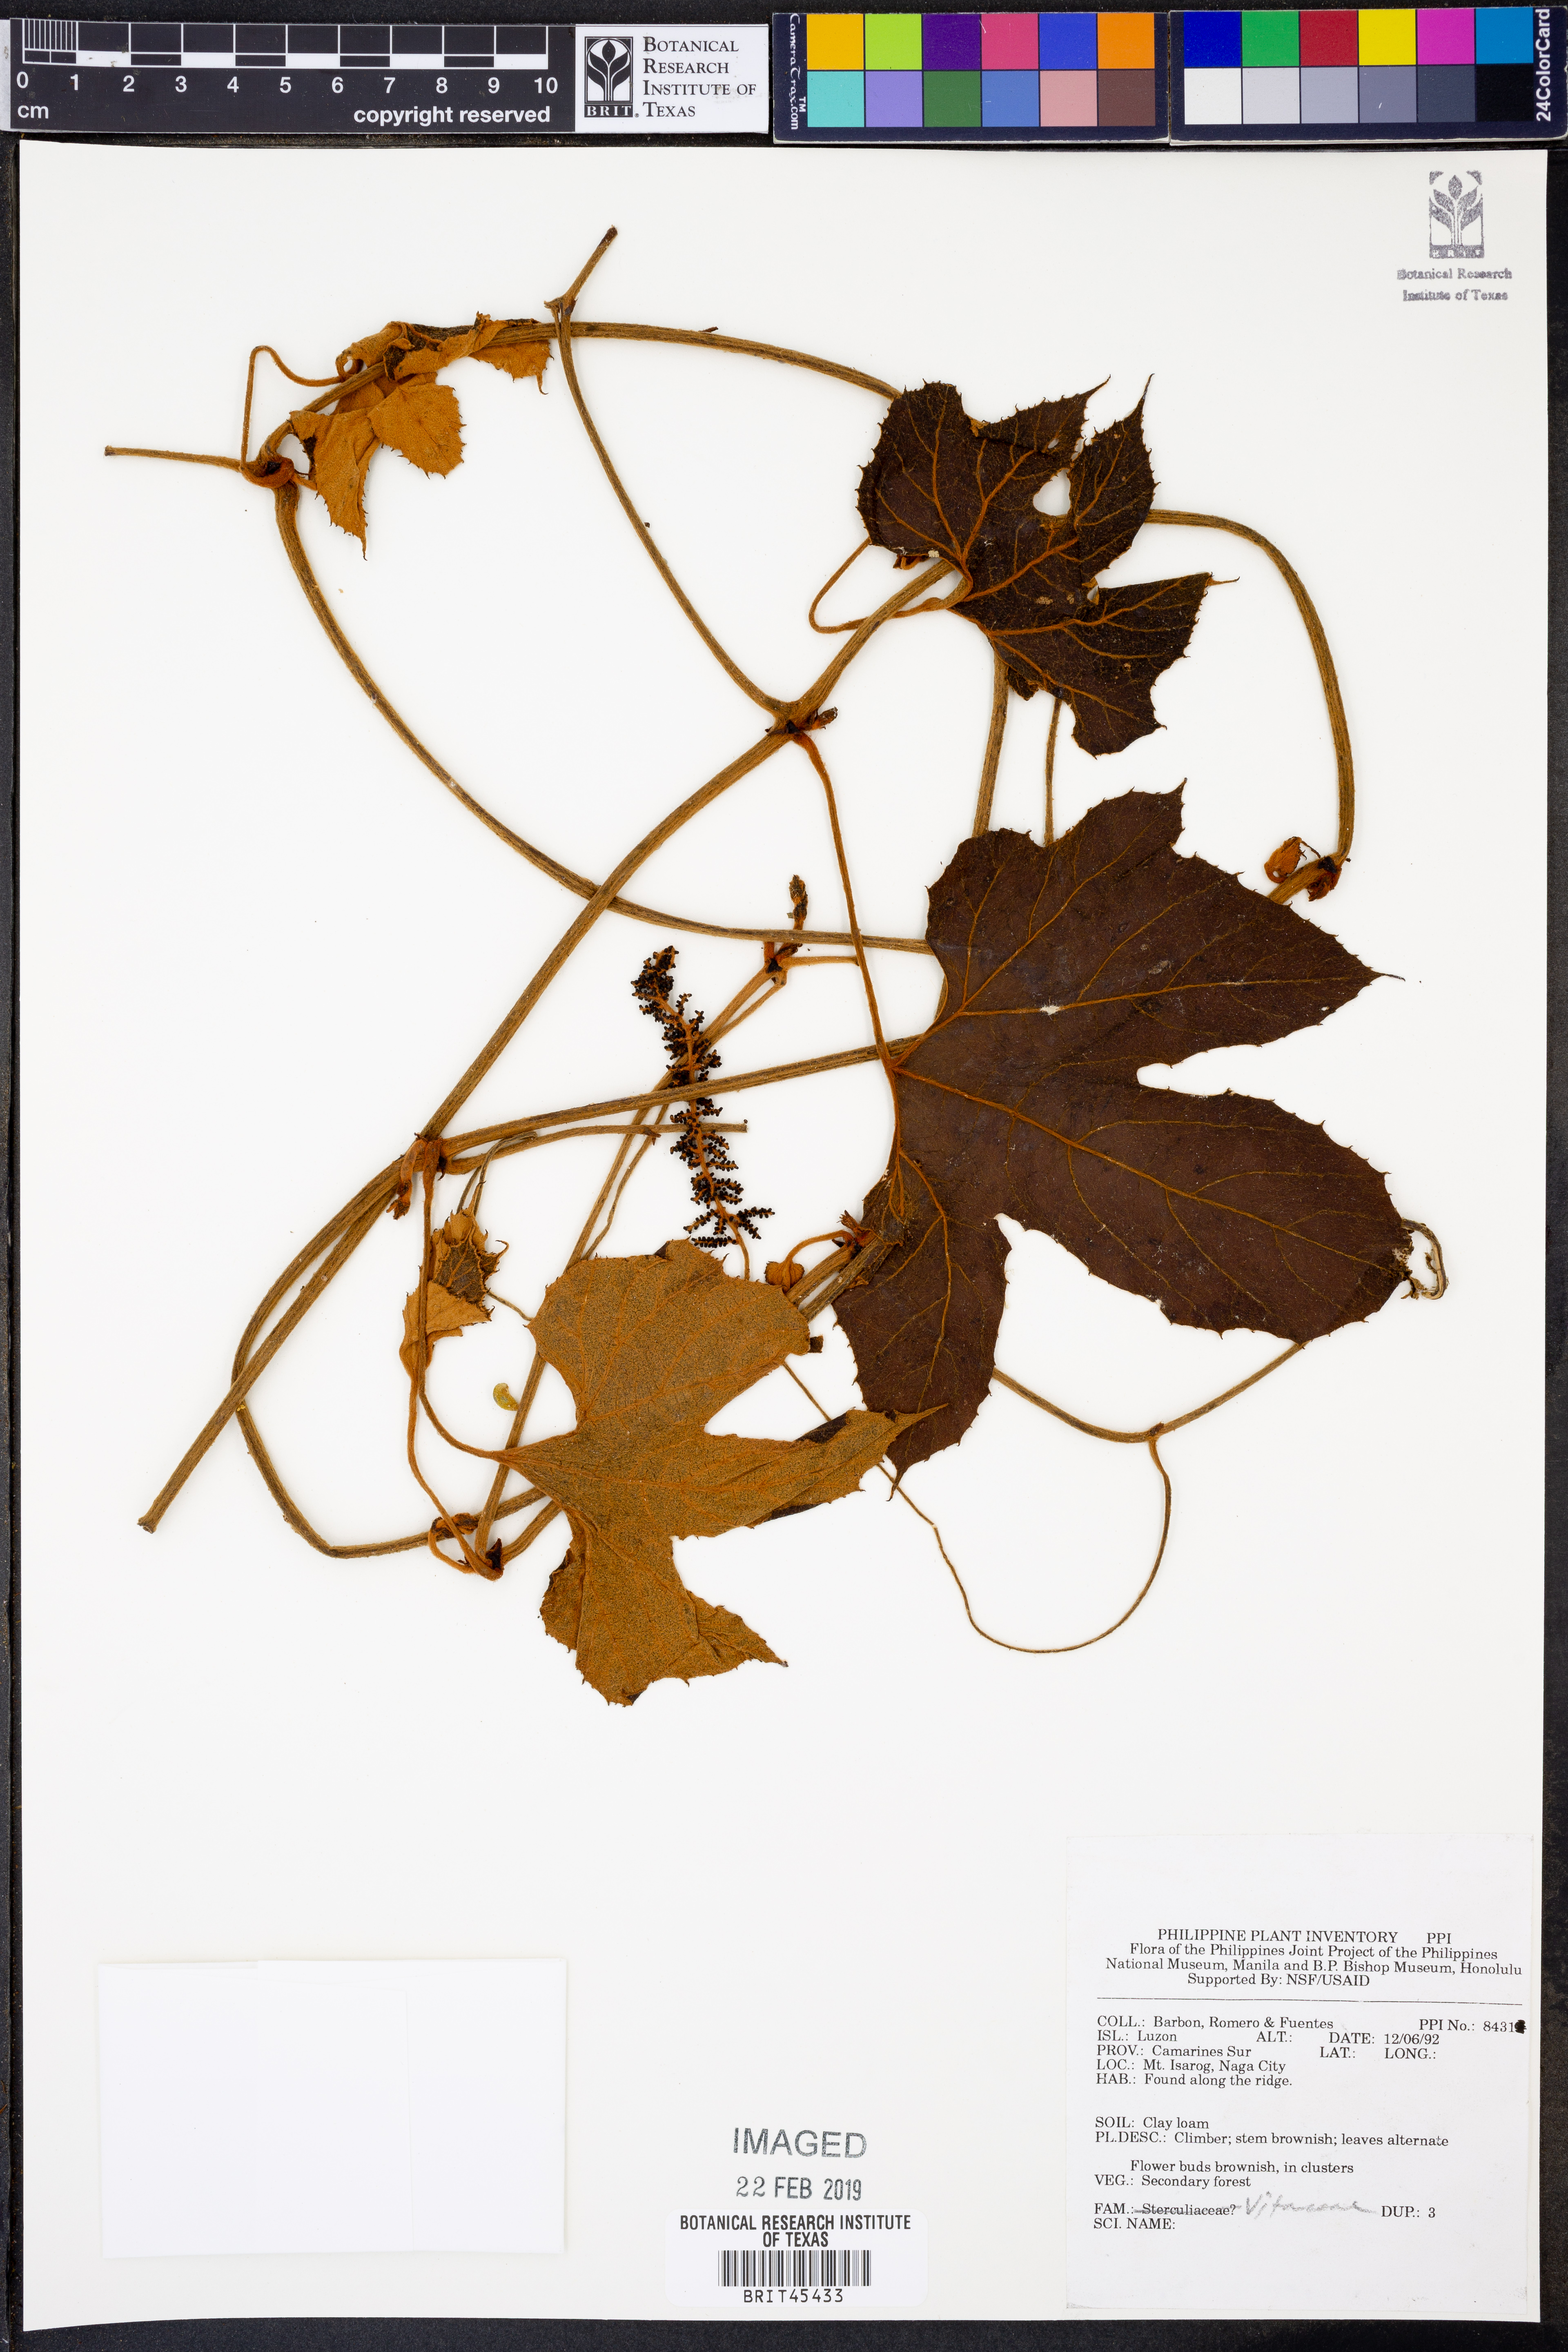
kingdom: Plantae
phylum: Tracheophyta
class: Magnoliopsida
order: Vitales
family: Vitaceae
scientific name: Vitaceae
